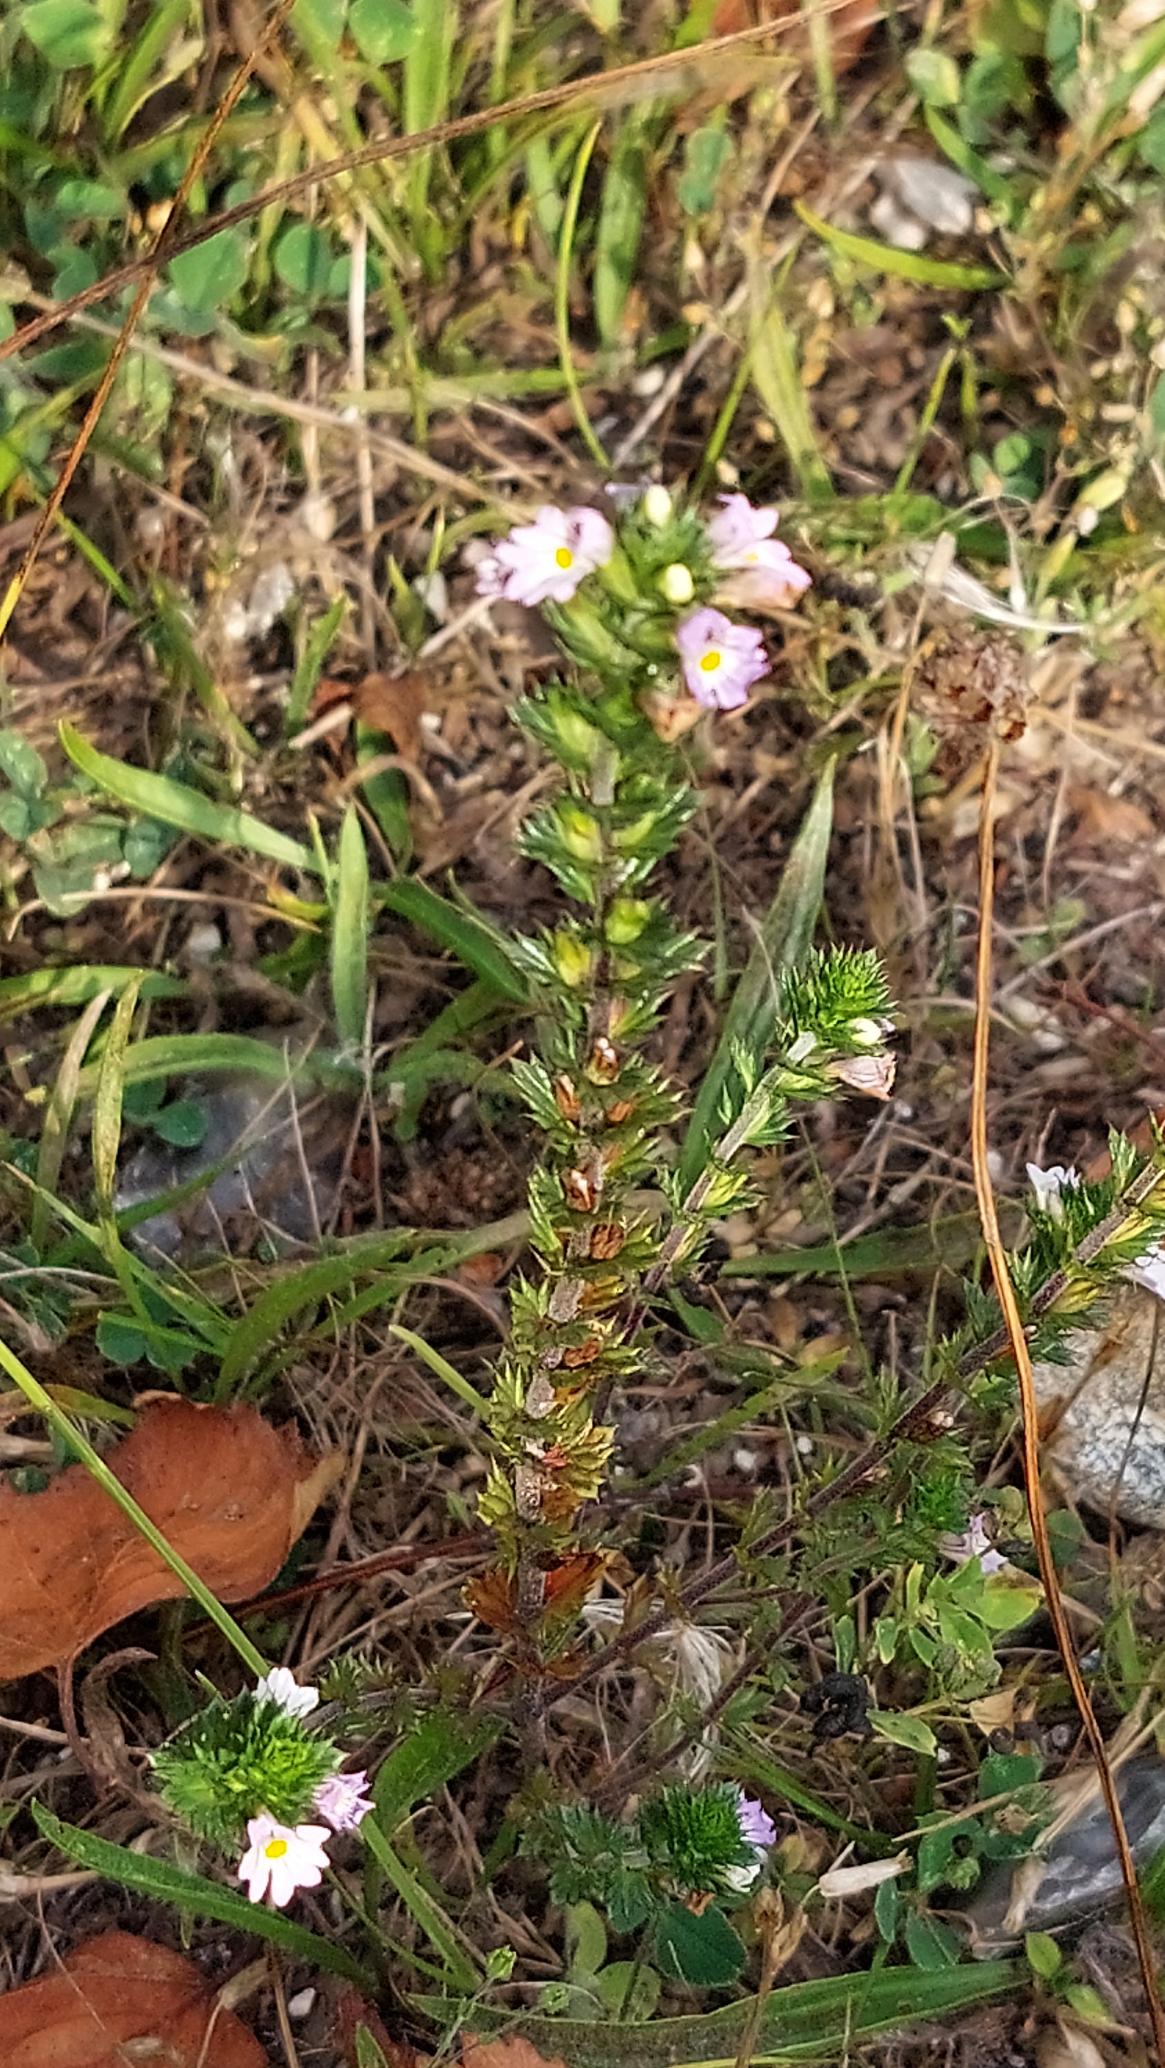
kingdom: Plantae
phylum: Tracheophyta
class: Magnoliopsida
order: Lamiales
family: Orobanchaceae
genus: Euphrasia
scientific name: Euphrasia stricta
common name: Spids øjentrøst
